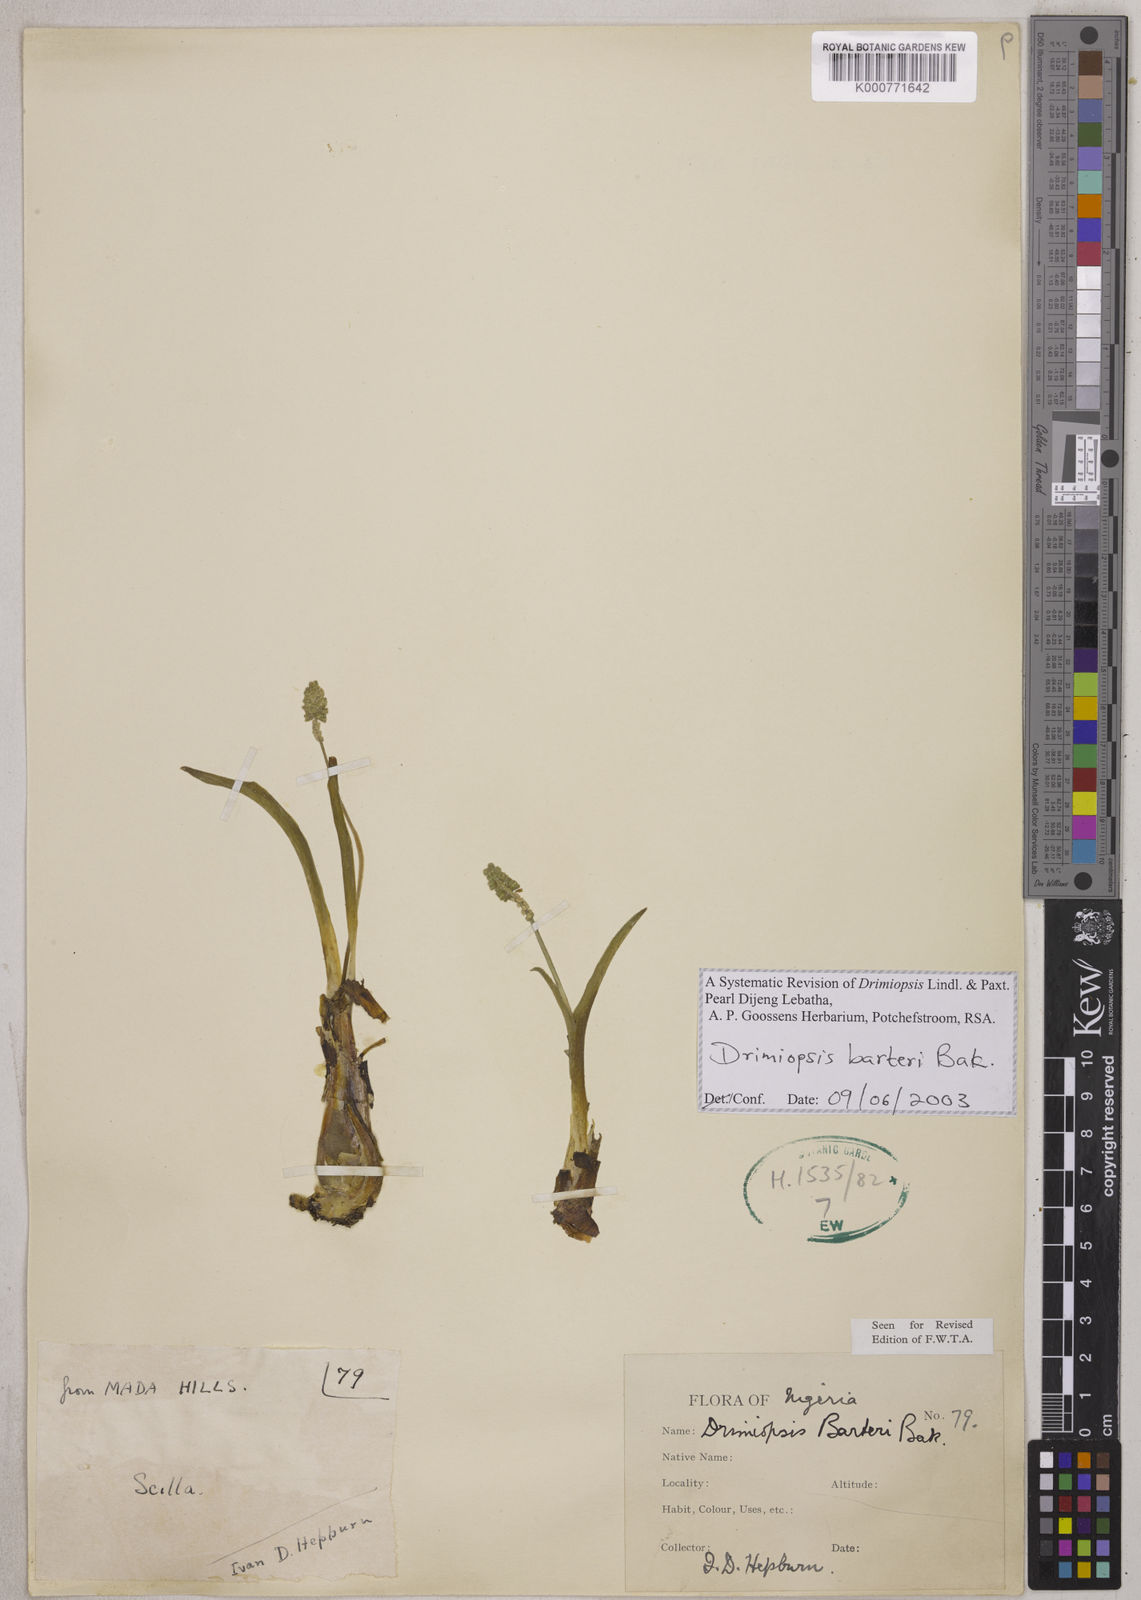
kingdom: Plantae
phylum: Tracheophyta
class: Liliopsida
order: Asparagales
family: Asparagaceae
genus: Drimiopsis
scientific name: Drimiopsis barteri
